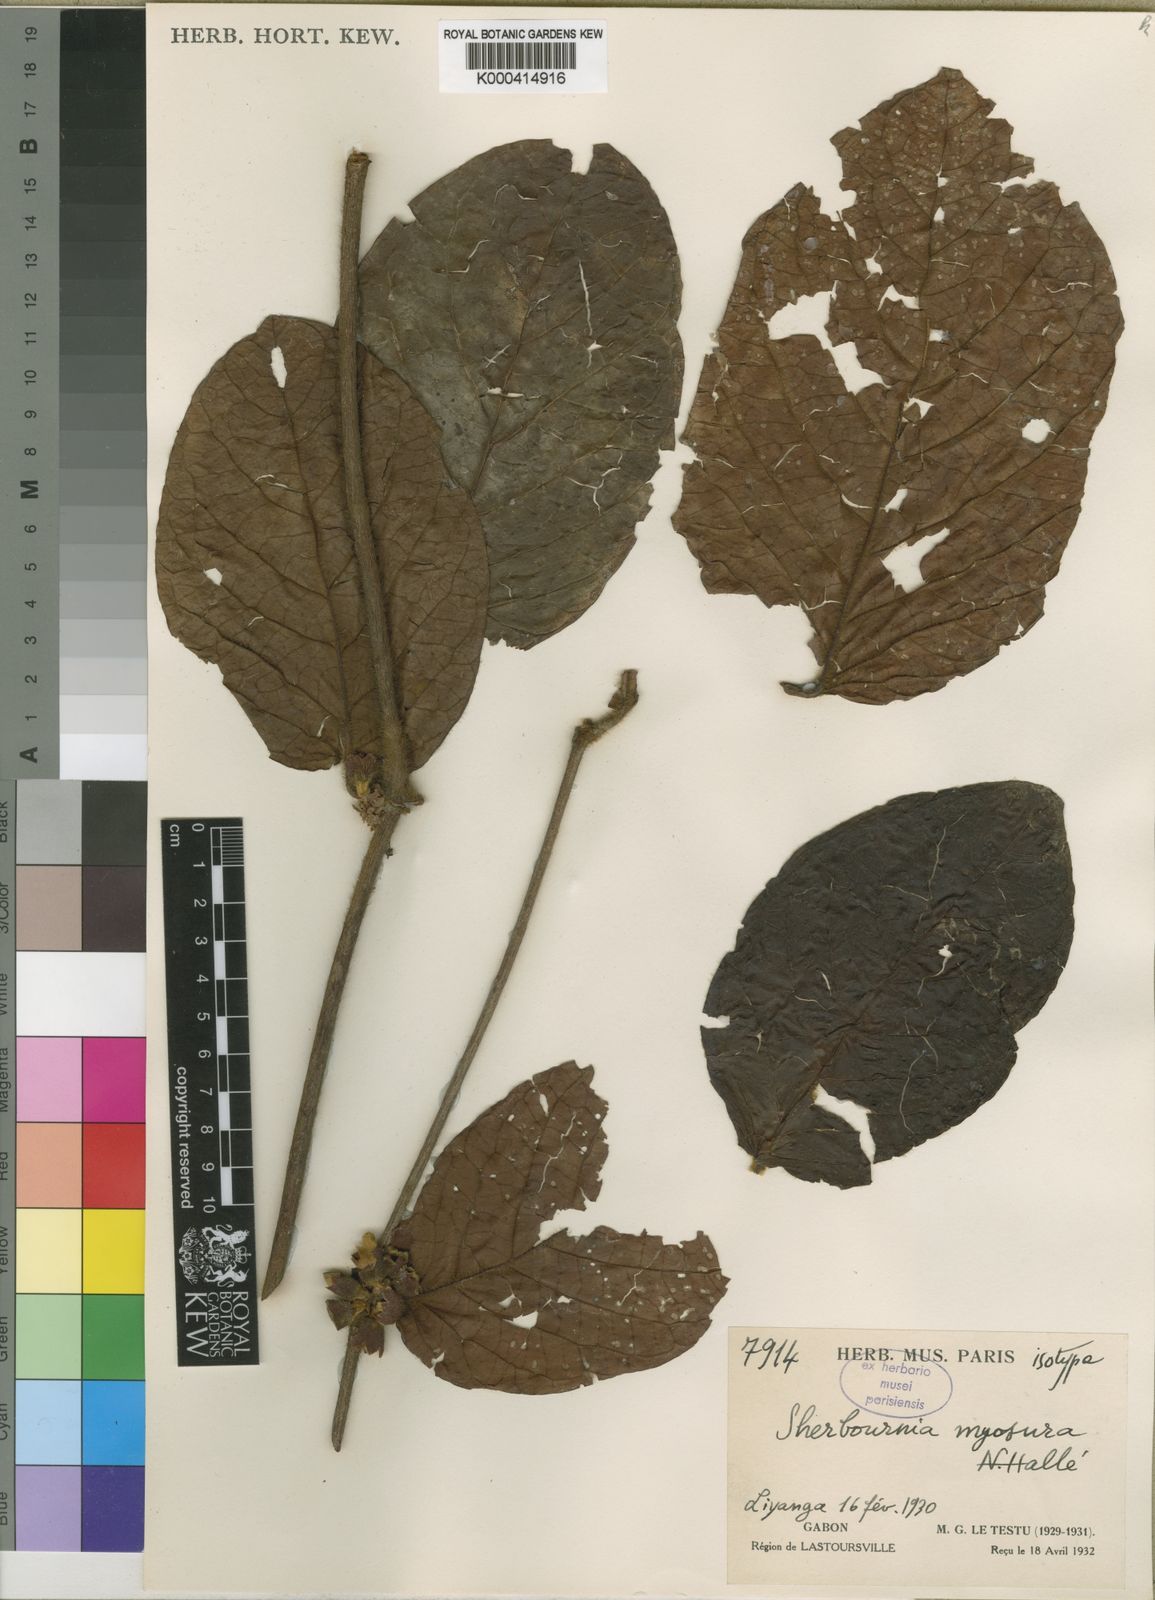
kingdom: Plantae
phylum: Tracheophyta
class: Magnoliopsida
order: Gentianales
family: Rubiaceae
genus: Sherbournia
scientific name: Sherbournia
